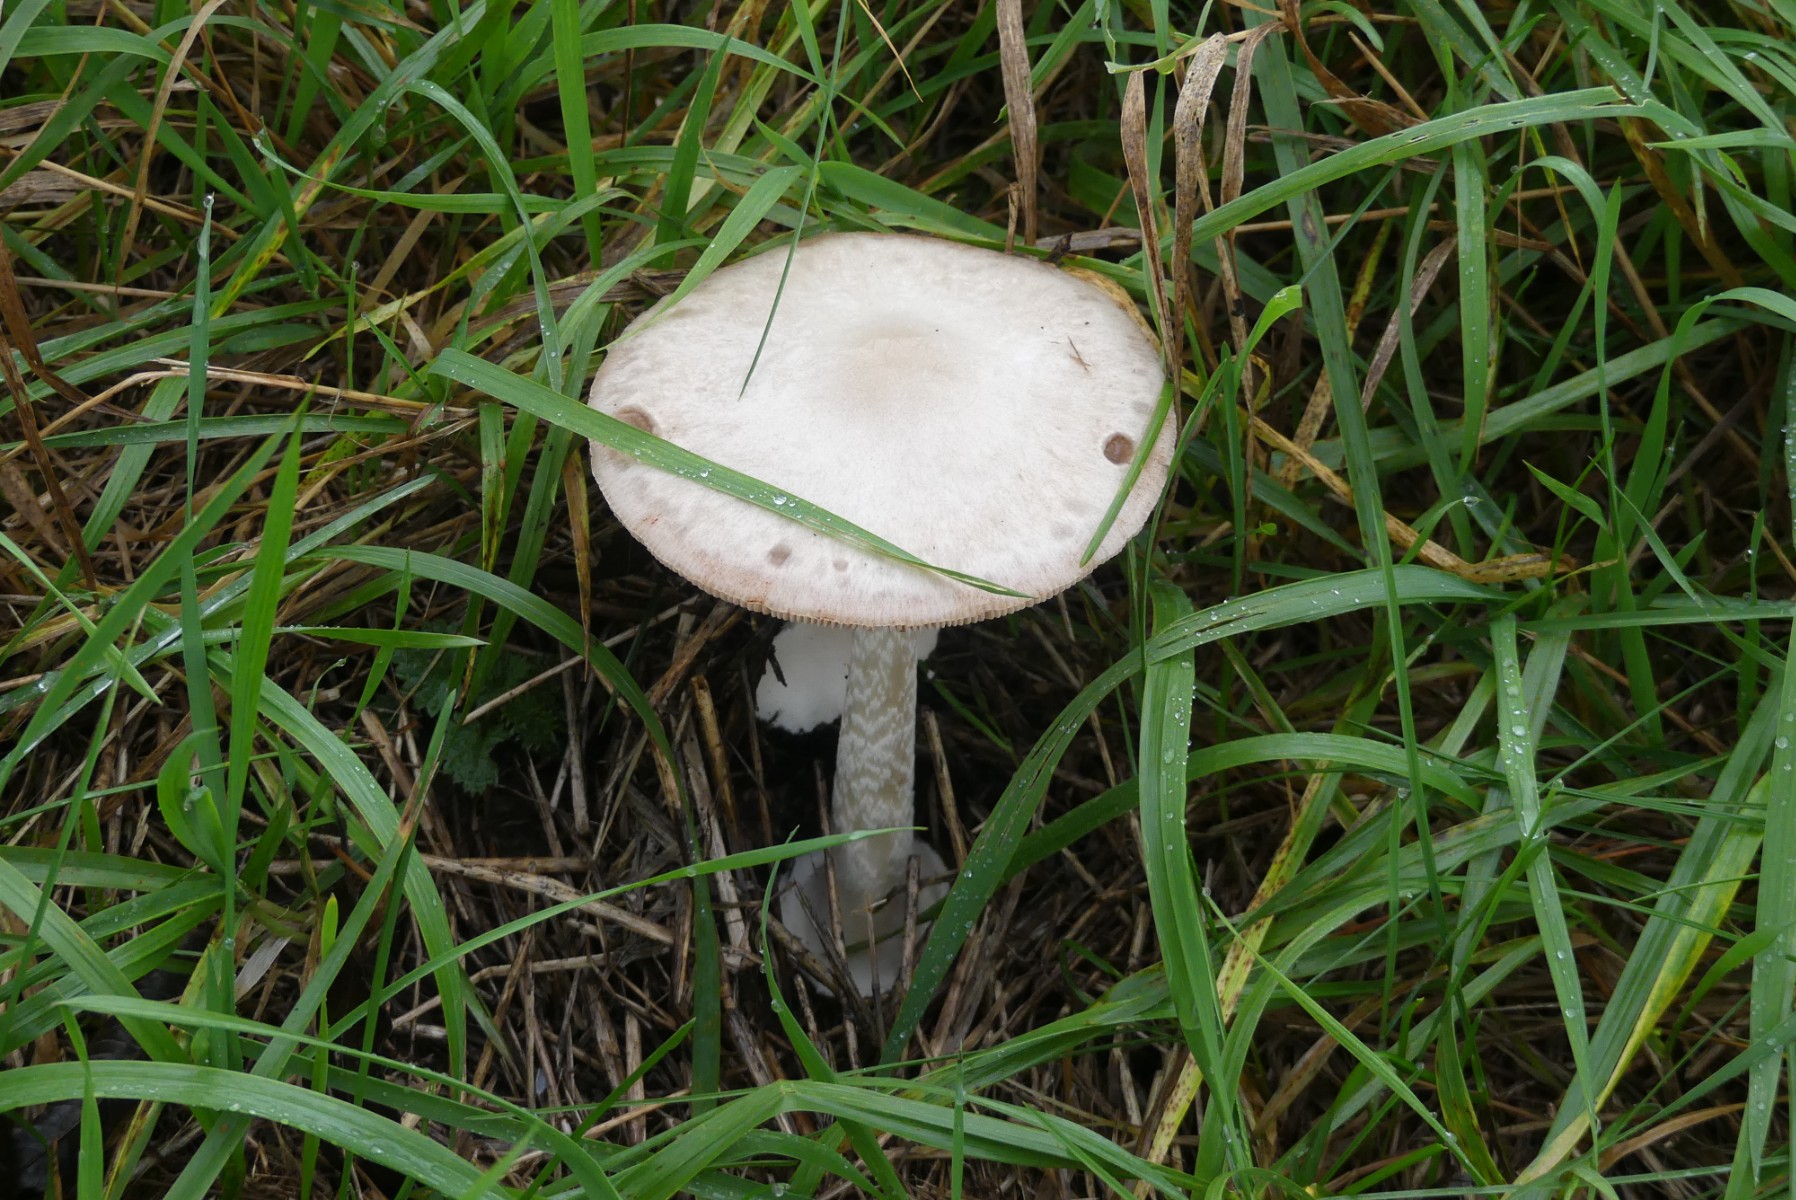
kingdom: Fungi
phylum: Basidiomycota
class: Agaricomycetes
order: Agaricales
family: Pluteaceae
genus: Volvopluteus
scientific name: Volvopluteus gloiocephalus
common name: høj posesvamp
